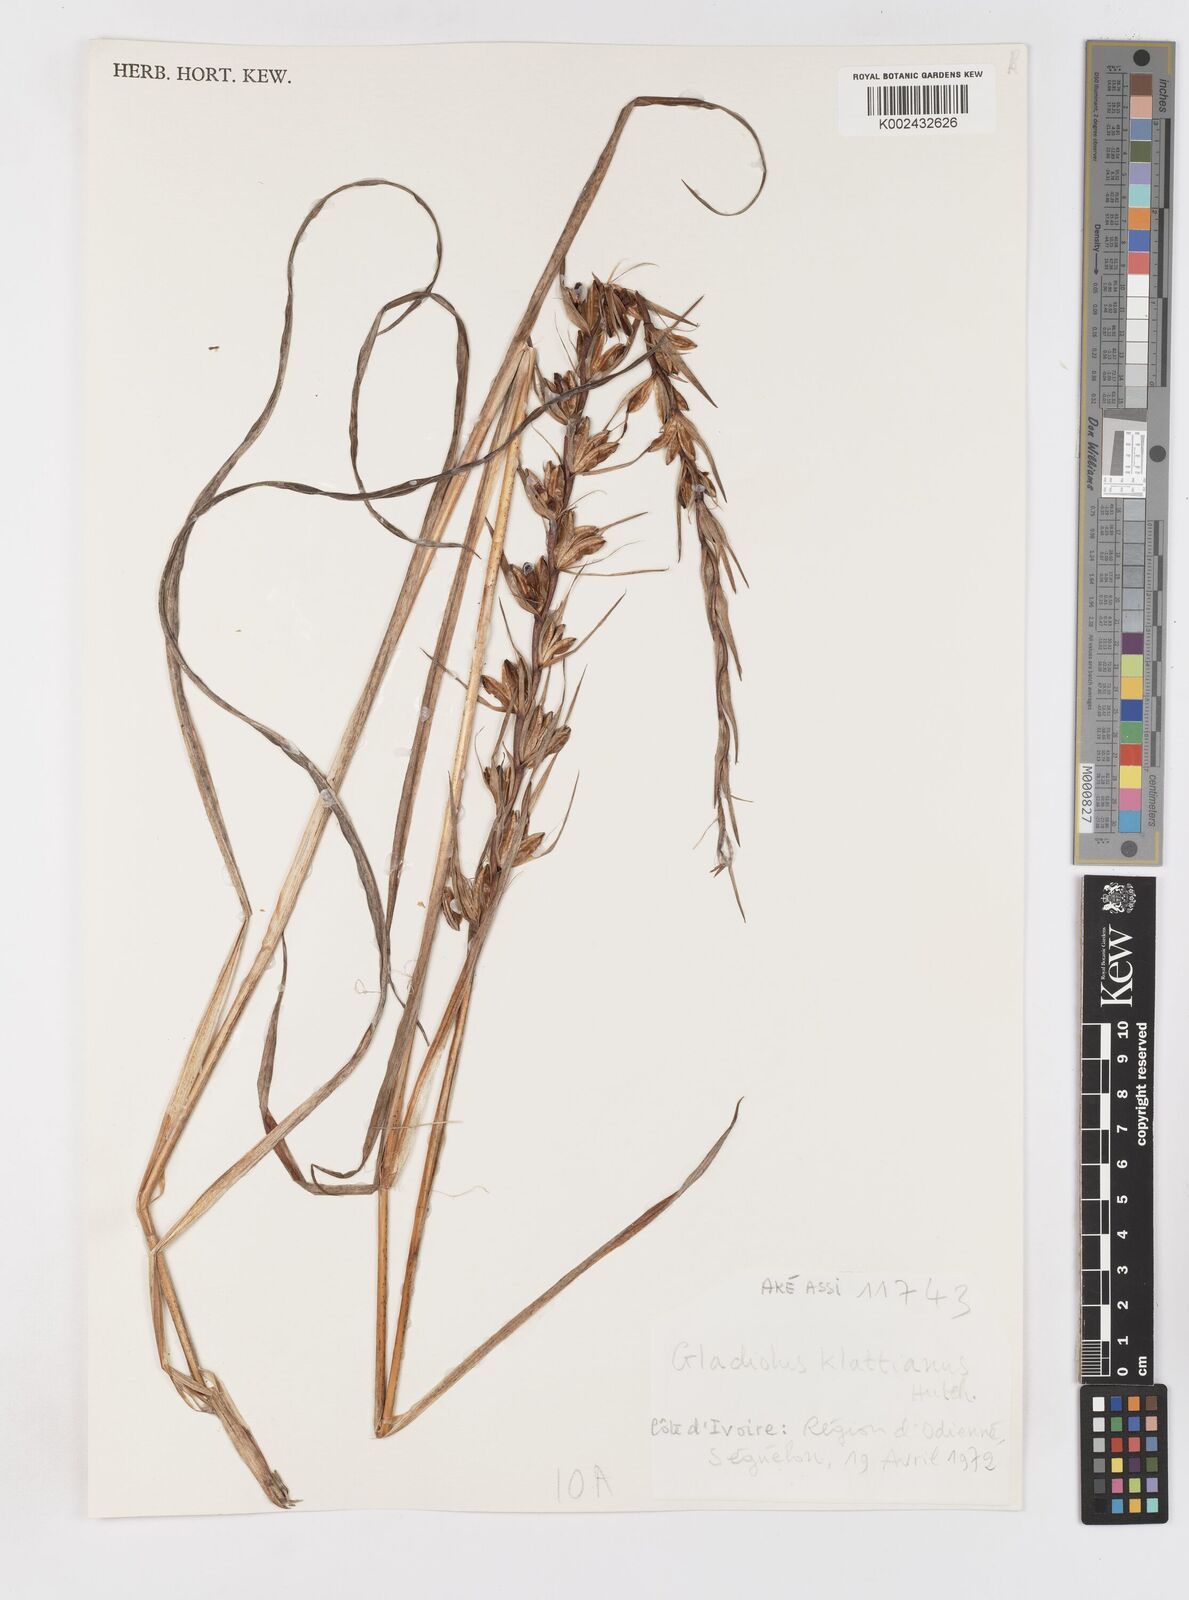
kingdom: Plantae
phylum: Tracheophyta
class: Liliopsida
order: Asparagales
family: Iridaceae
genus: Gladiolus
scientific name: Gladiolus gregarius
